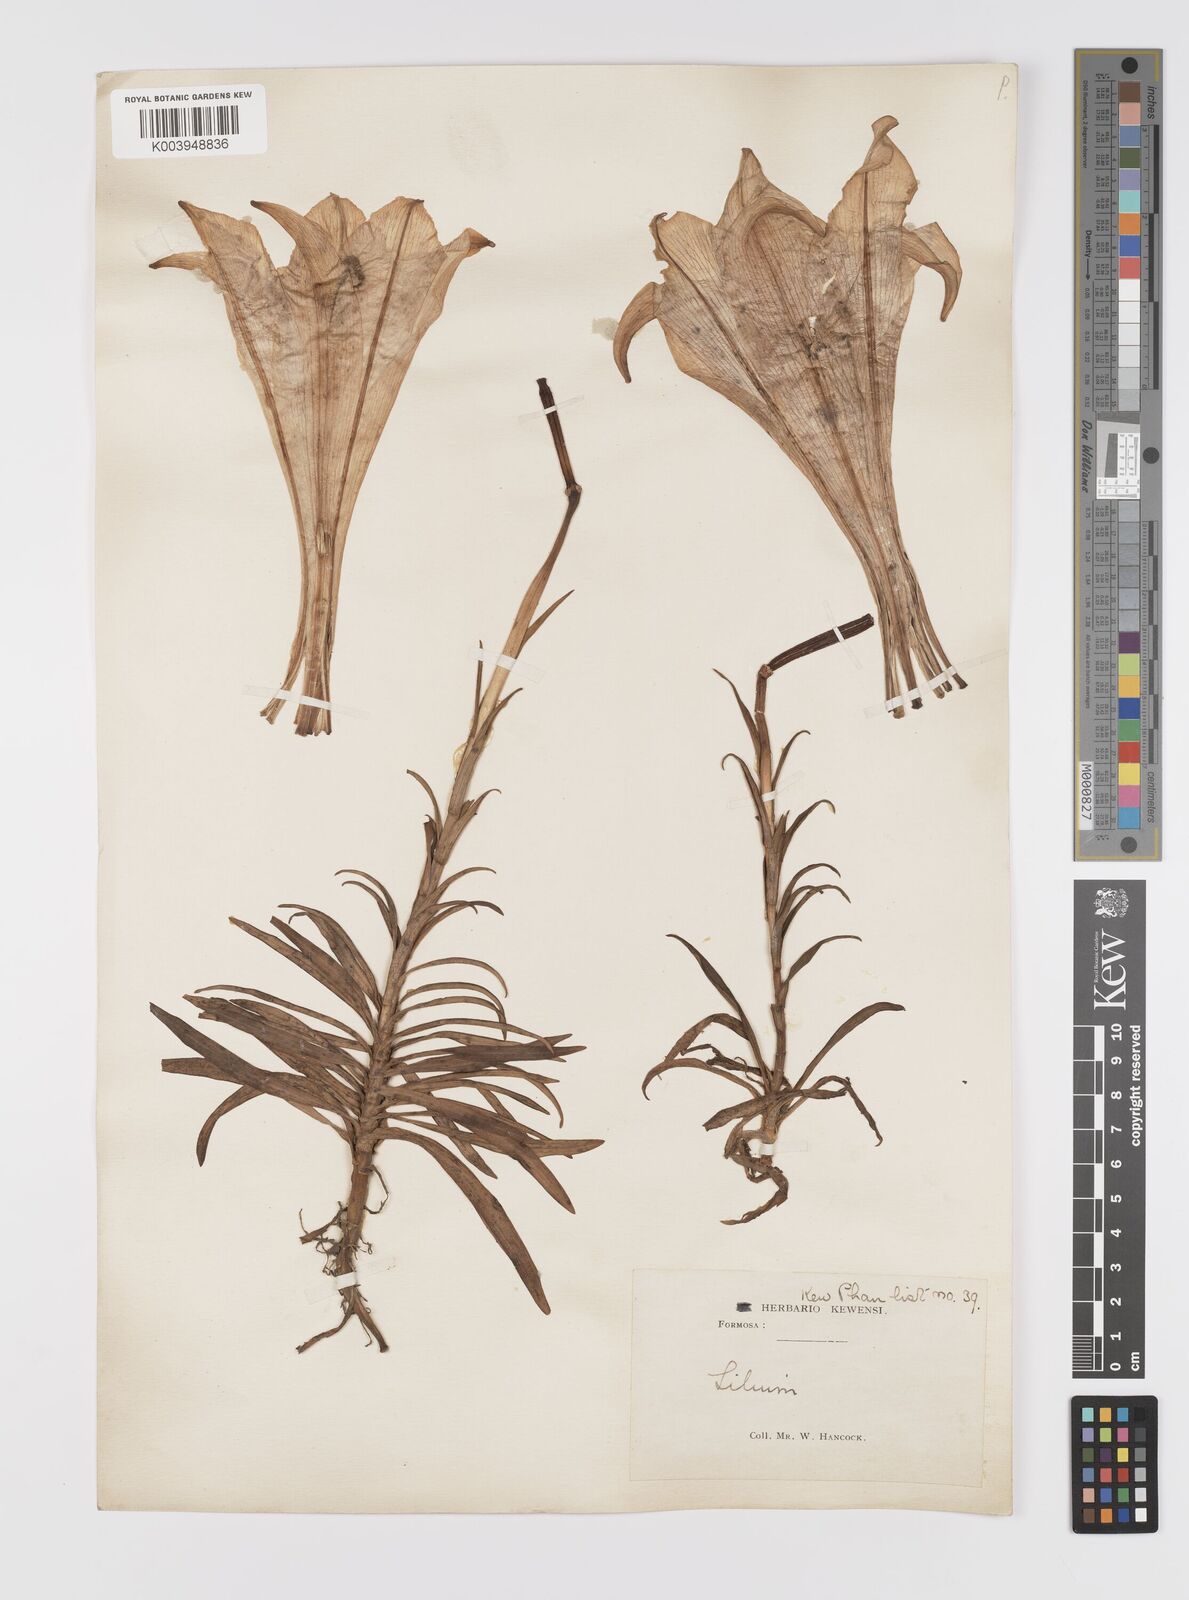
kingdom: Plantae
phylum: Tracheophyta
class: Liliopsida
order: Liliales
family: Liliaceae
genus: Lilium
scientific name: Lilium formosanum
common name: Formosa lily
